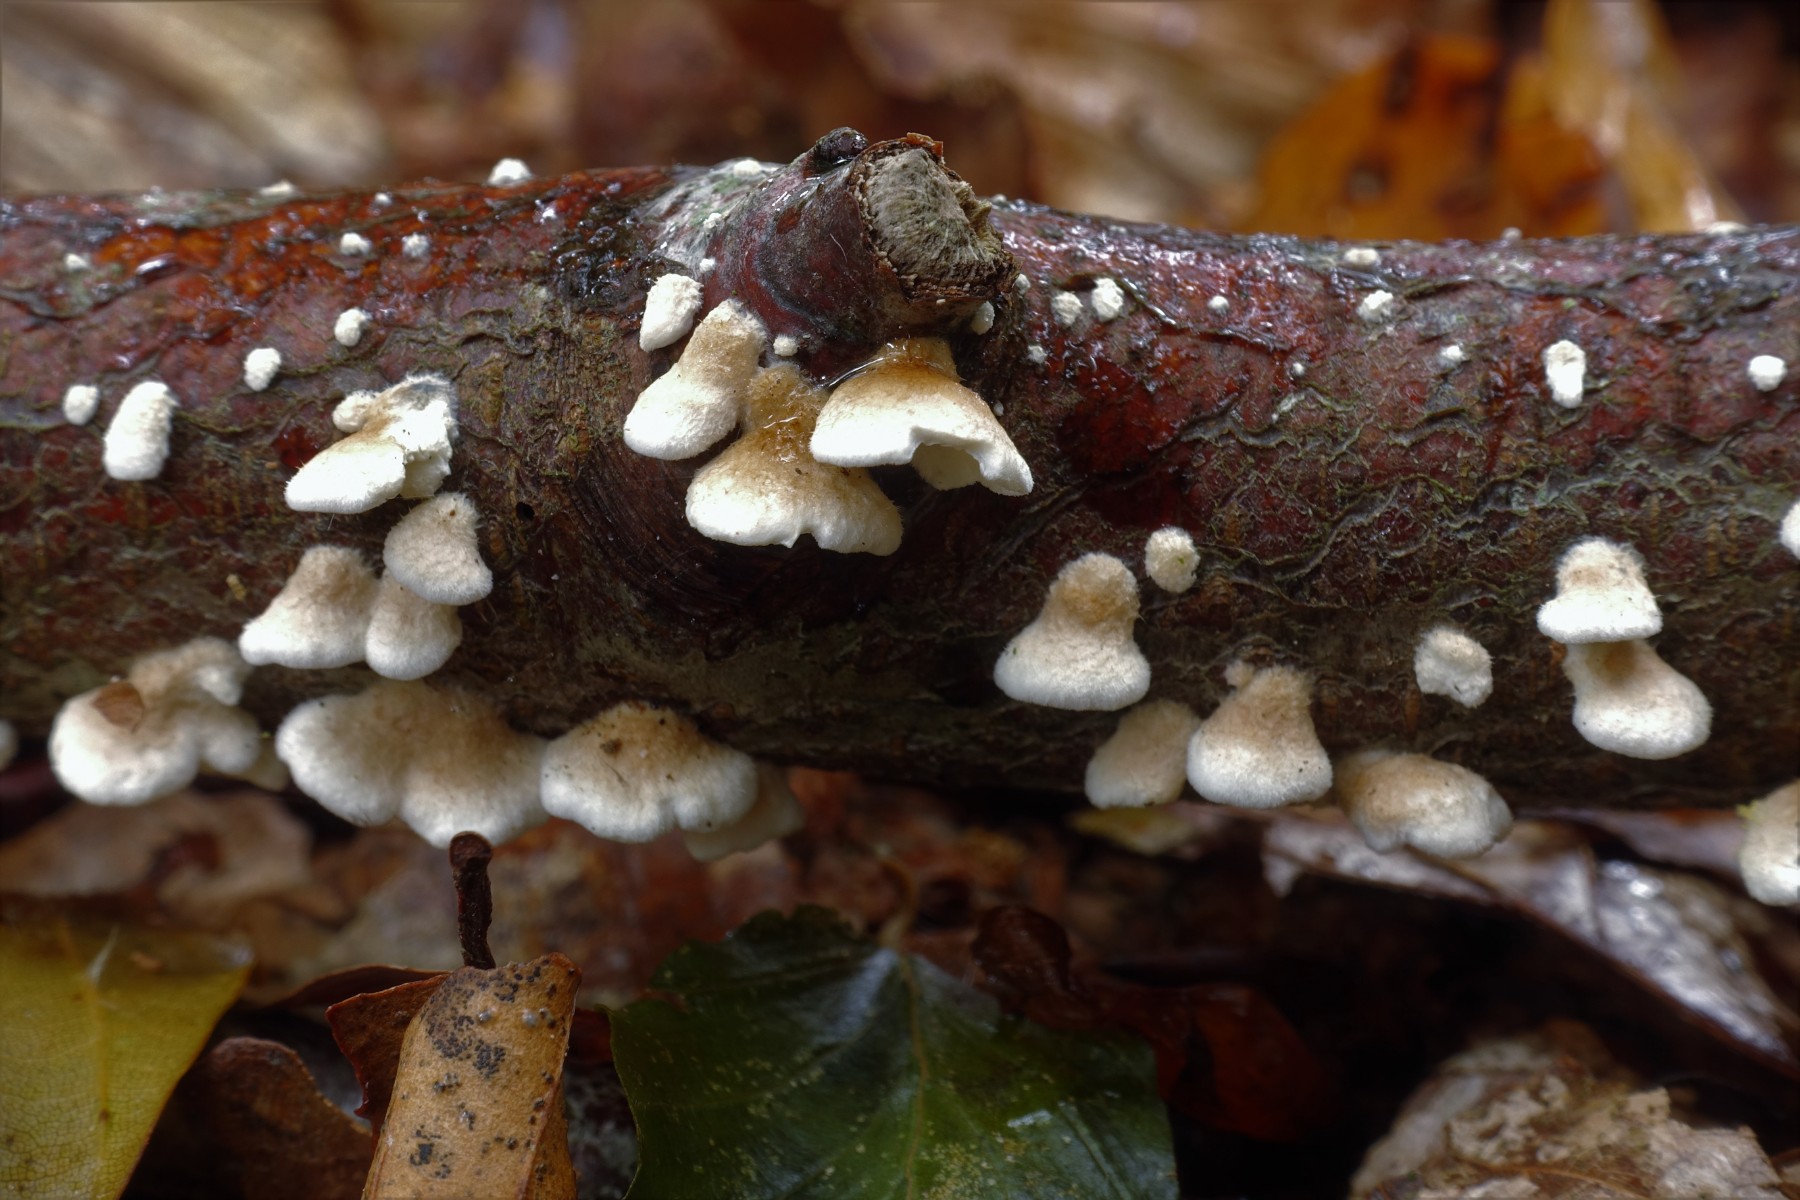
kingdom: Fungi
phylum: Basidiomycota
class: Agaricomycetes
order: Amylocorticiales
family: Amylocorticiaceae
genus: Plicaturopsis
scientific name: Plicaturopsis crispa
